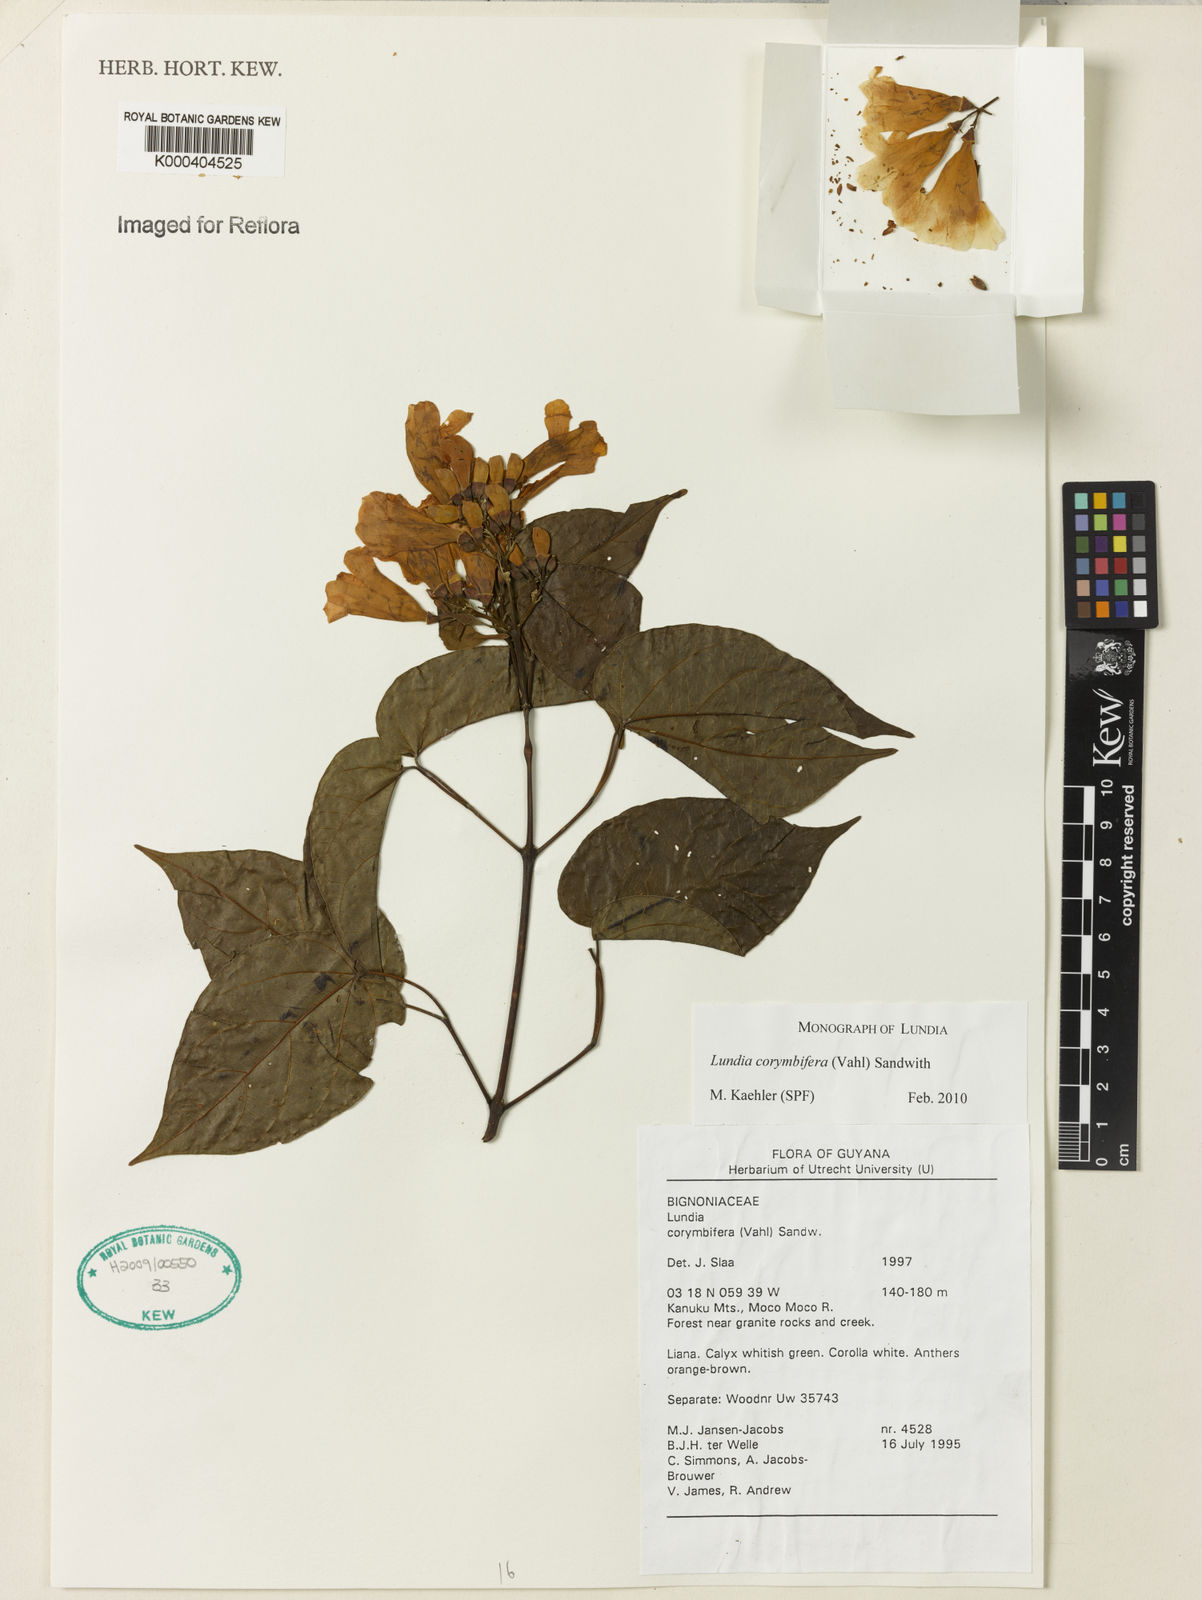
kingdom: Plantae
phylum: Tracheophyta
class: Magnoliopsida
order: Lamiales
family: Bignoniaceae
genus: Lundia
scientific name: Lundia corymbifera
